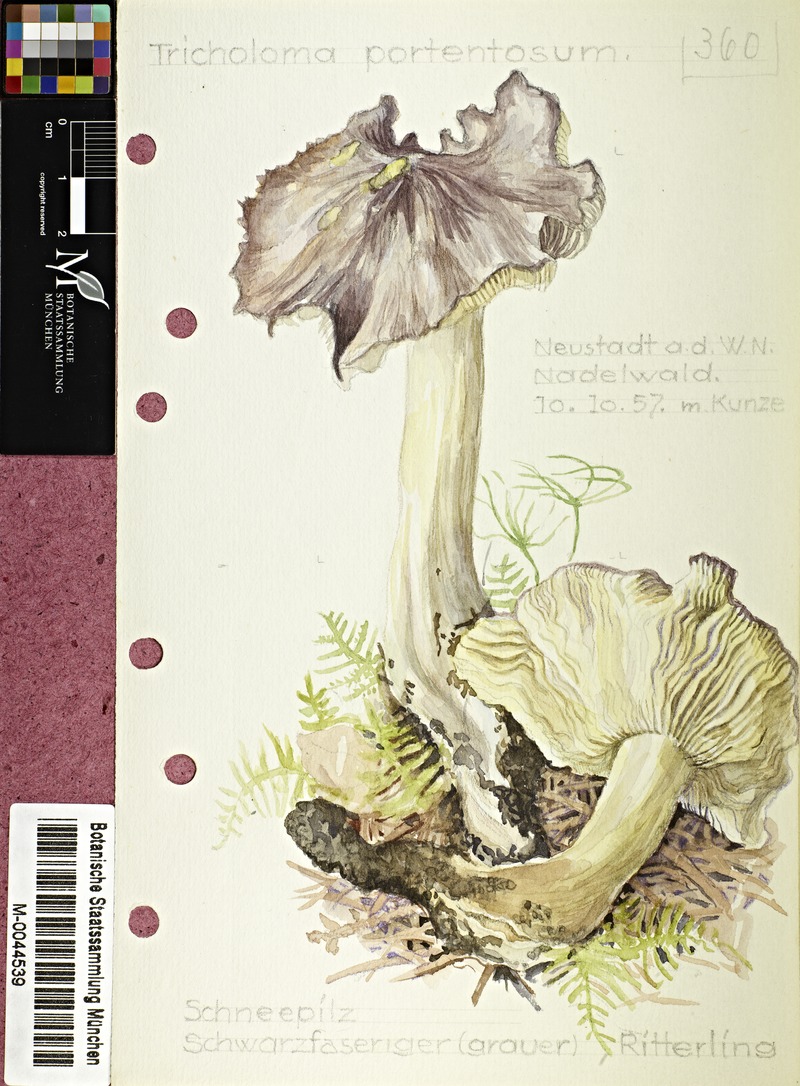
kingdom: Fungi
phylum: Basidiomycota
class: Agaricomycetes
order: Agaricales
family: Tricholomataceae
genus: Tricholoma
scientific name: Tricholoma portentosum
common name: Coalman
